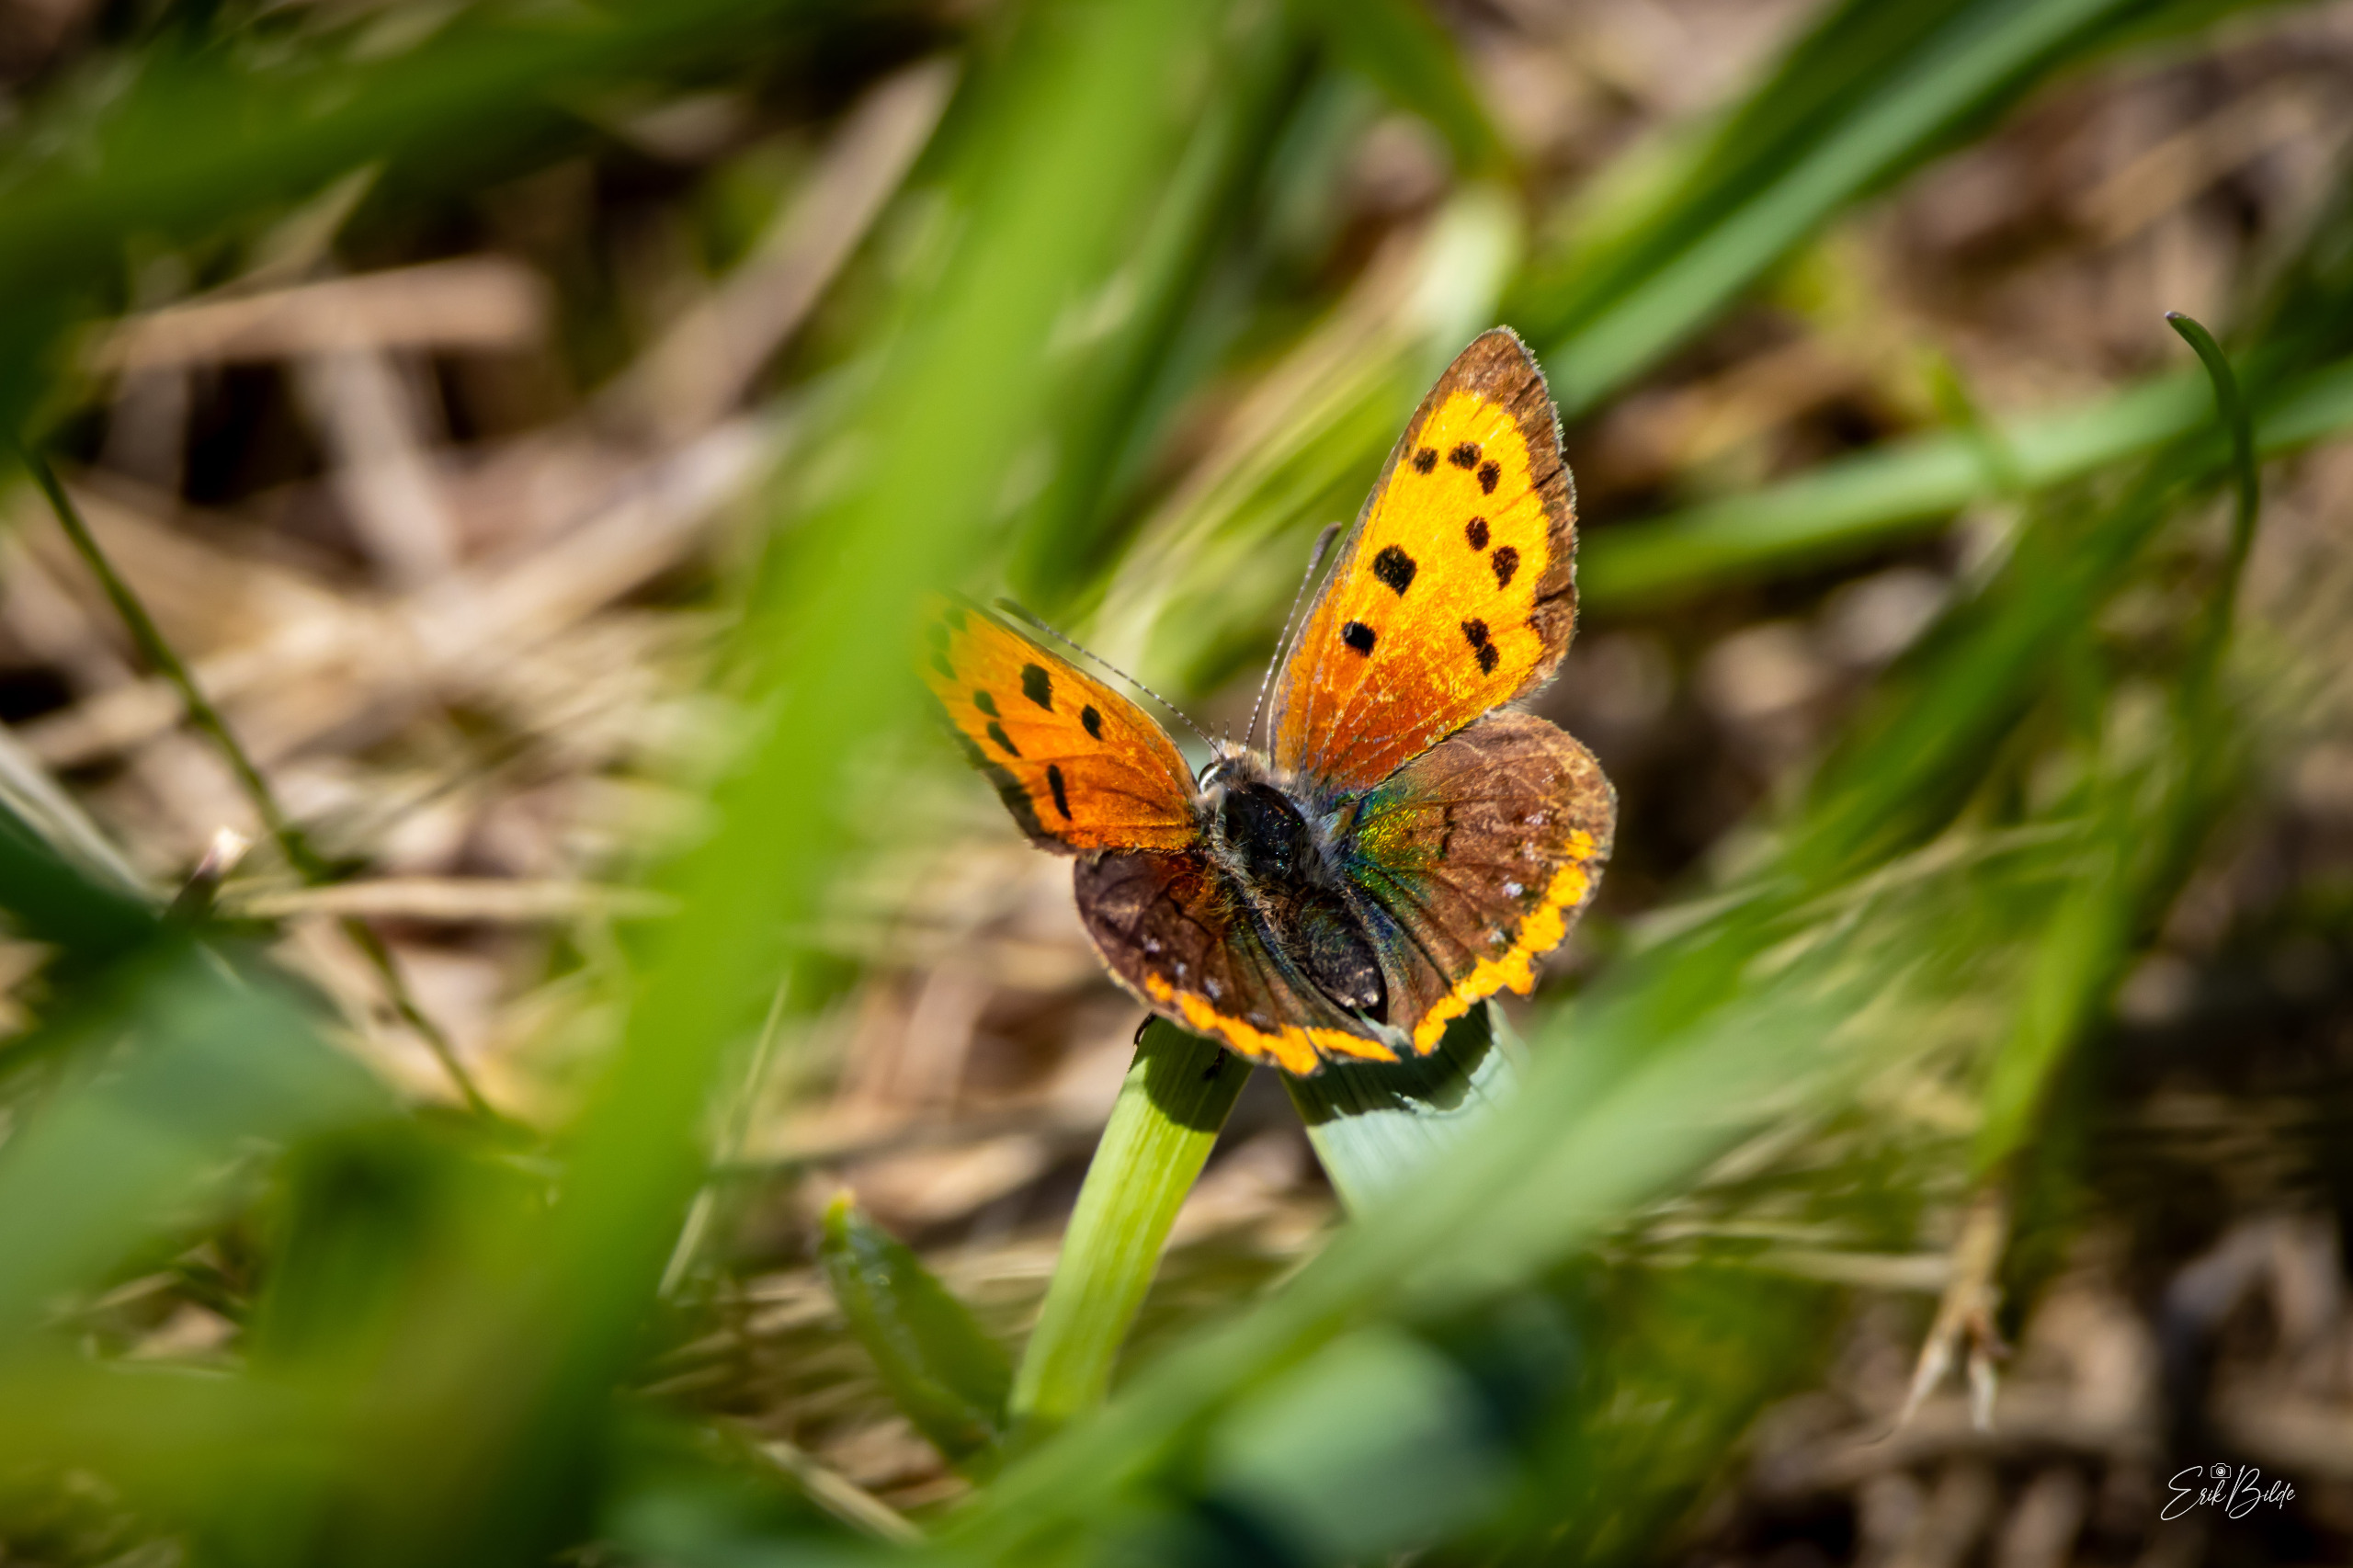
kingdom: Animalia
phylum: Arthropoda
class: Insecta
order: Lepidoptera
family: Lycaenidae
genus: Lycaena
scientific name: Lycaena phlaeas
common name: Lille ildfugl
